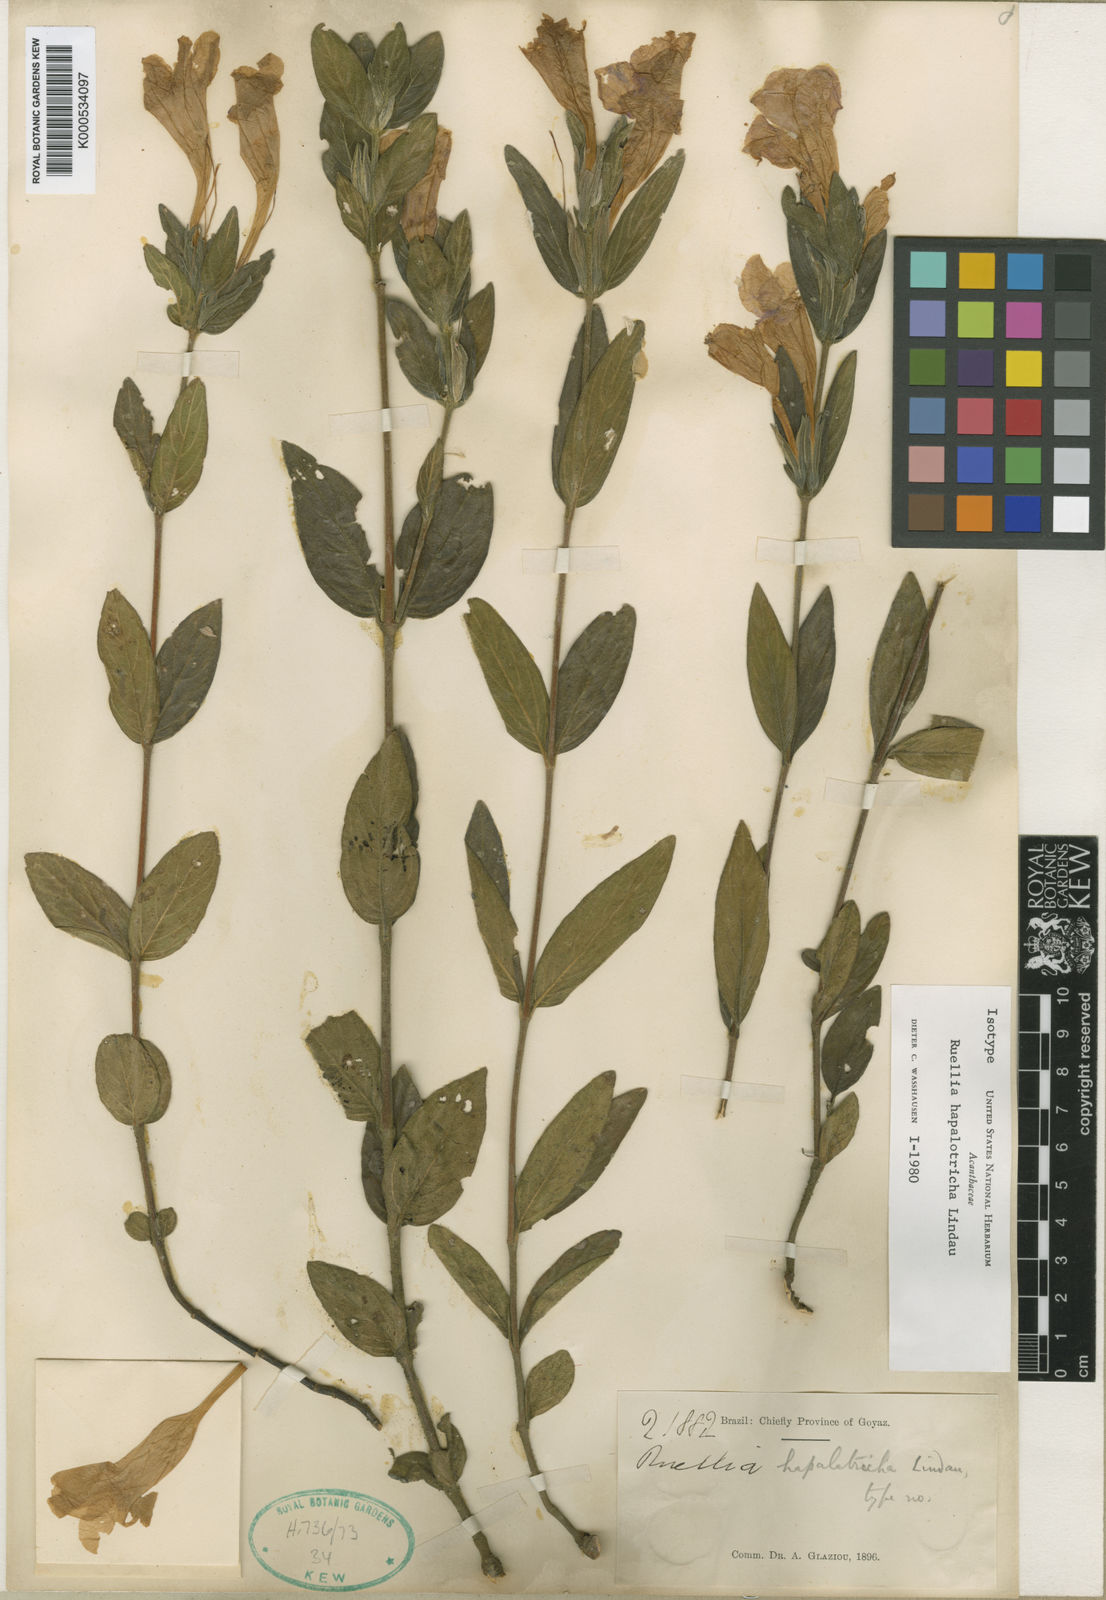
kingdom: Plantae
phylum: Tracheophyta
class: Magnoliopsida
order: Lamiales
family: Acanthaceae
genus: Ruellia
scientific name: Ruellia hapalotricha
